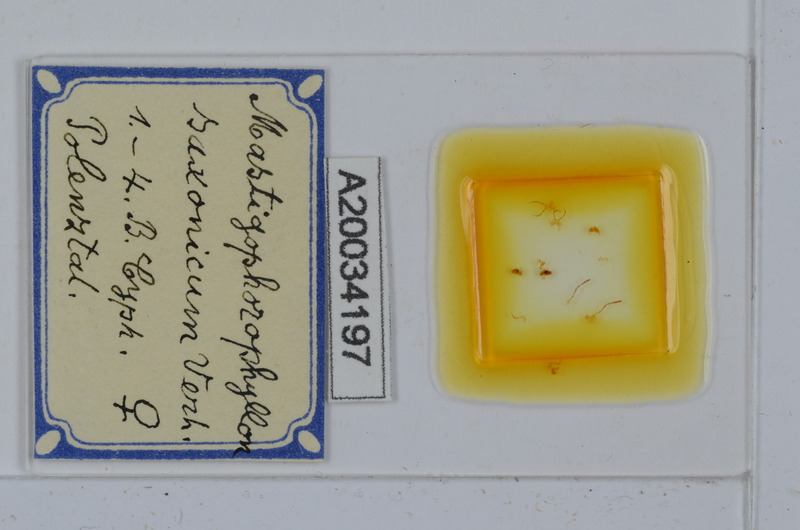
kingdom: Animalia
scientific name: Animalia
